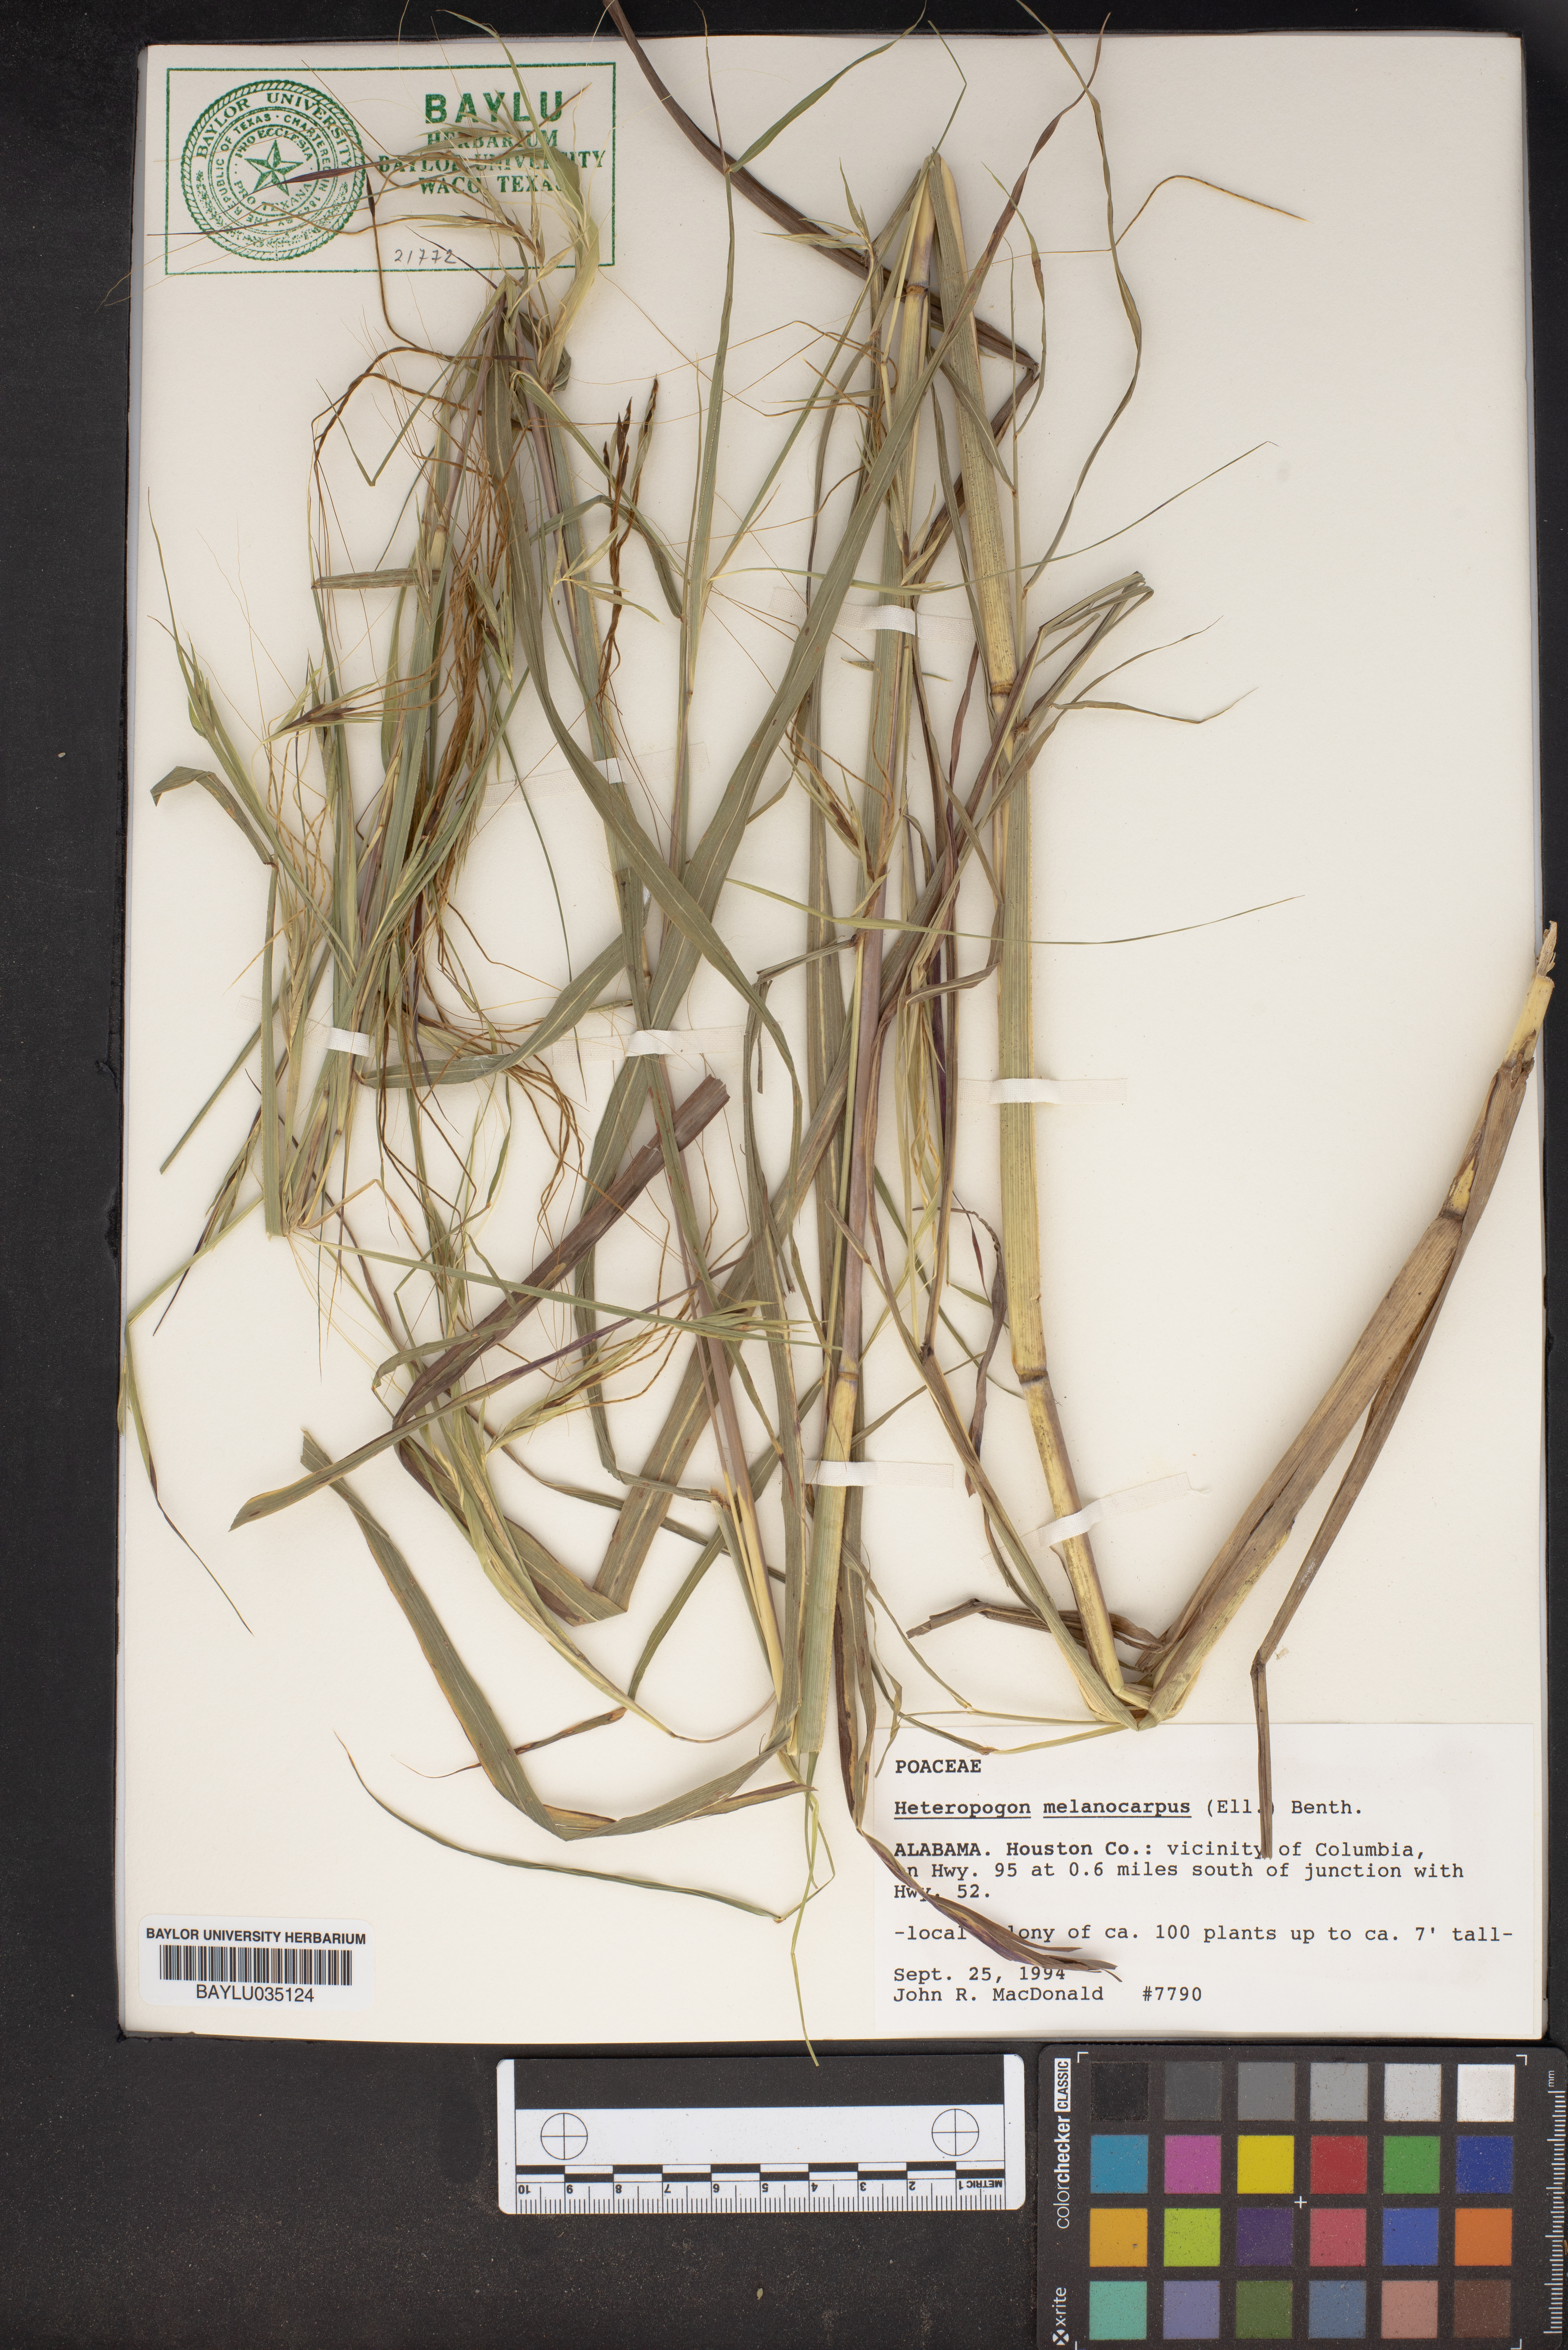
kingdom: Plantae
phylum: Tracheophyta
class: Liliopsida
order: Poales
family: Poaceae
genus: Heteropogon
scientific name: Heteropogon melanocarpus
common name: Sweet tanglehead
